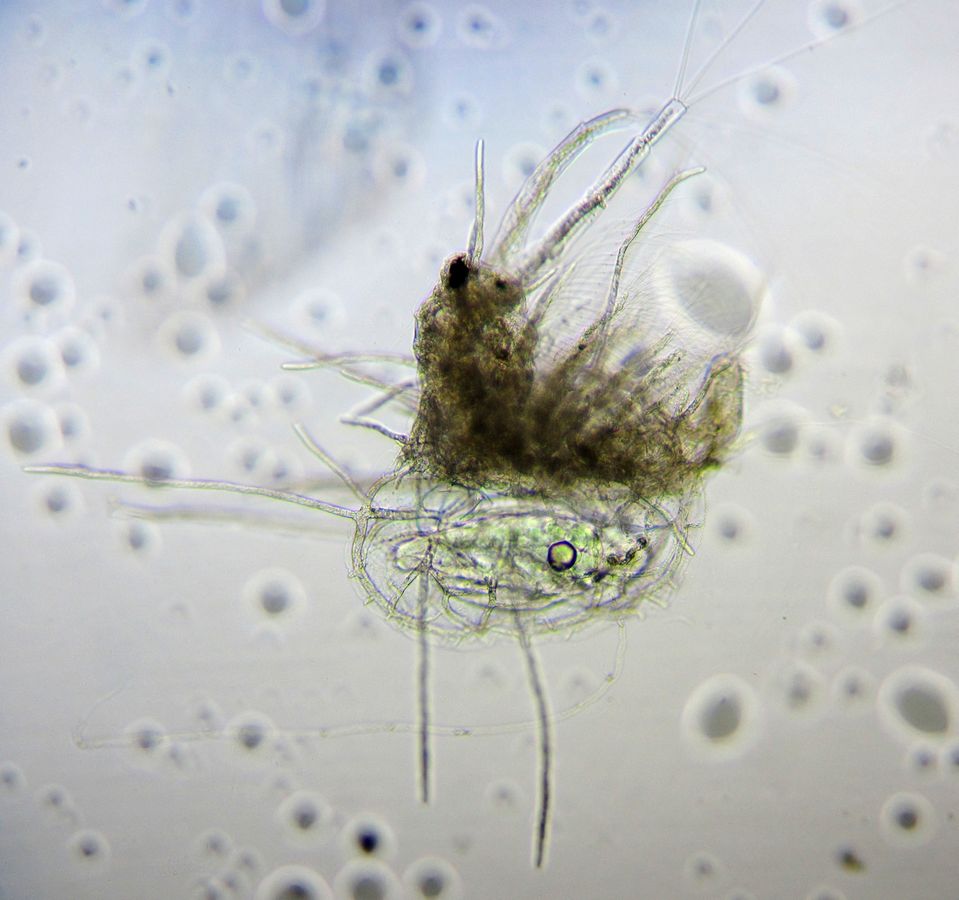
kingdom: Animalia
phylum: Arthropoda
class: Branchiopoda
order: Diplostraca
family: Holopediidae
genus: Holopedium
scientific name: Holopedium gibberum
